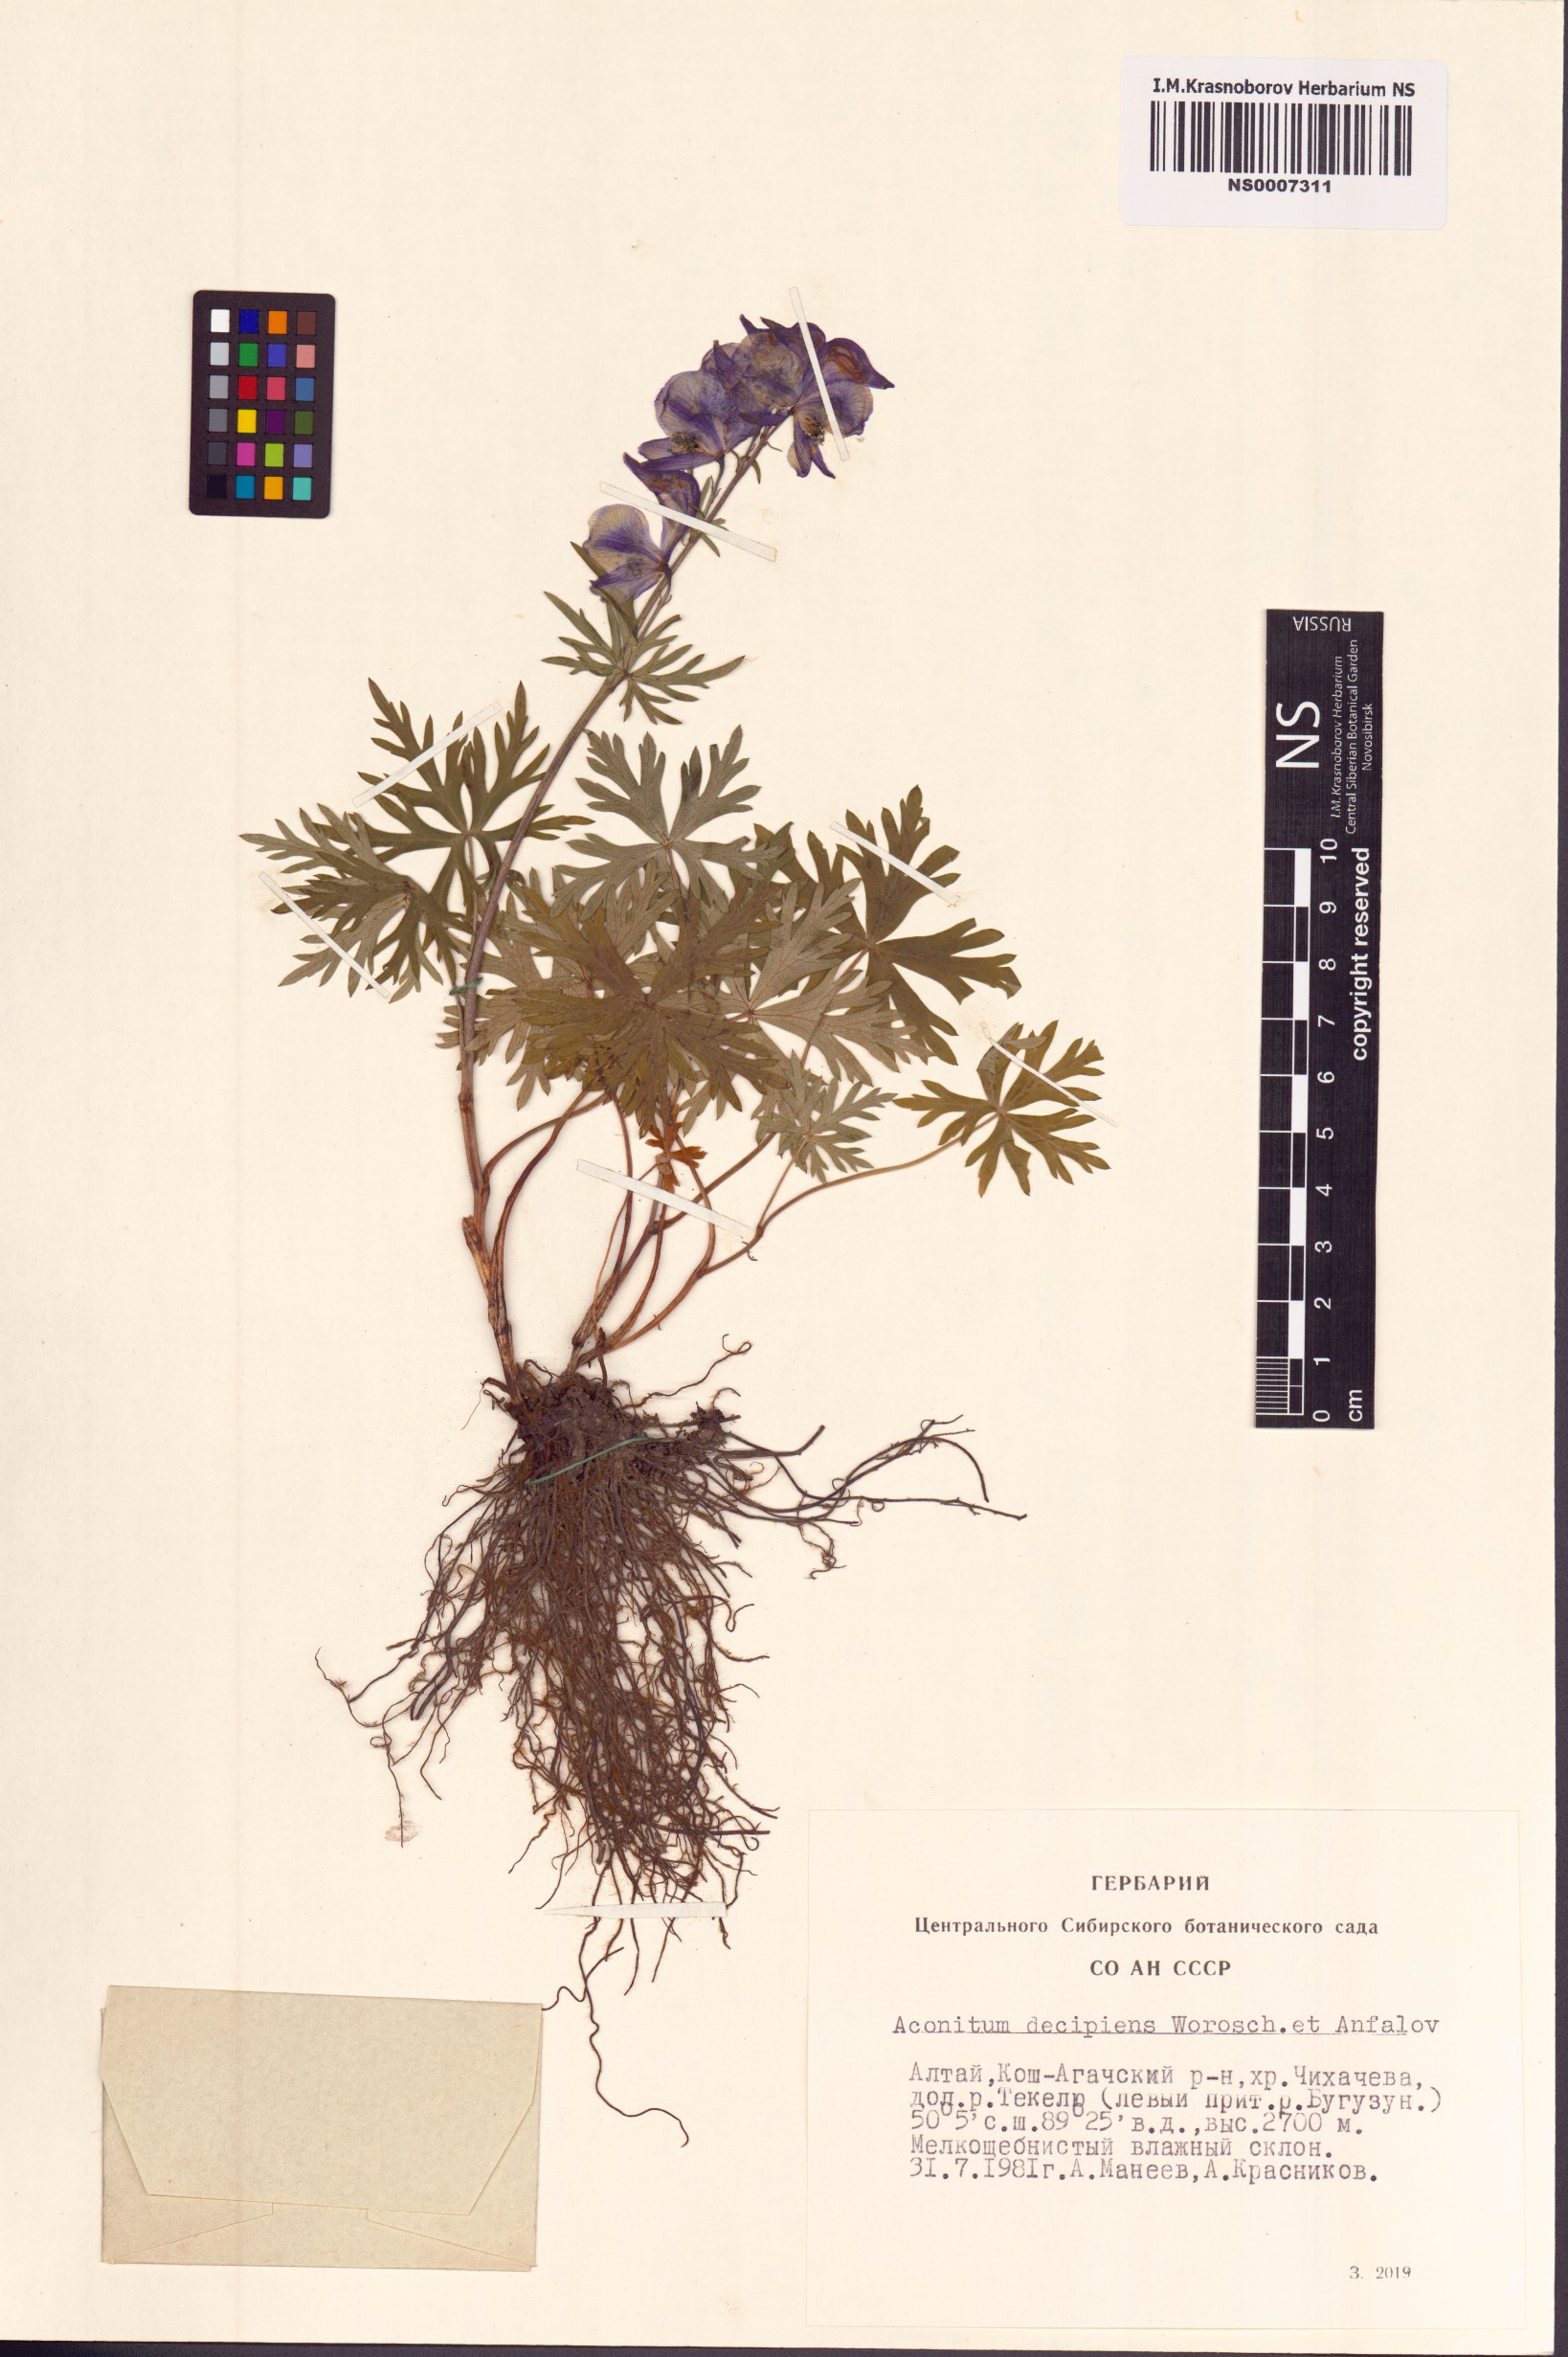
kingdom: Plantae
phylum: Tracheophyta
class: Magnoliopsida
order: Ranunculales
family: Ranunculaceae
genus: Aconitum
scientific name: Aconitum decipiens
